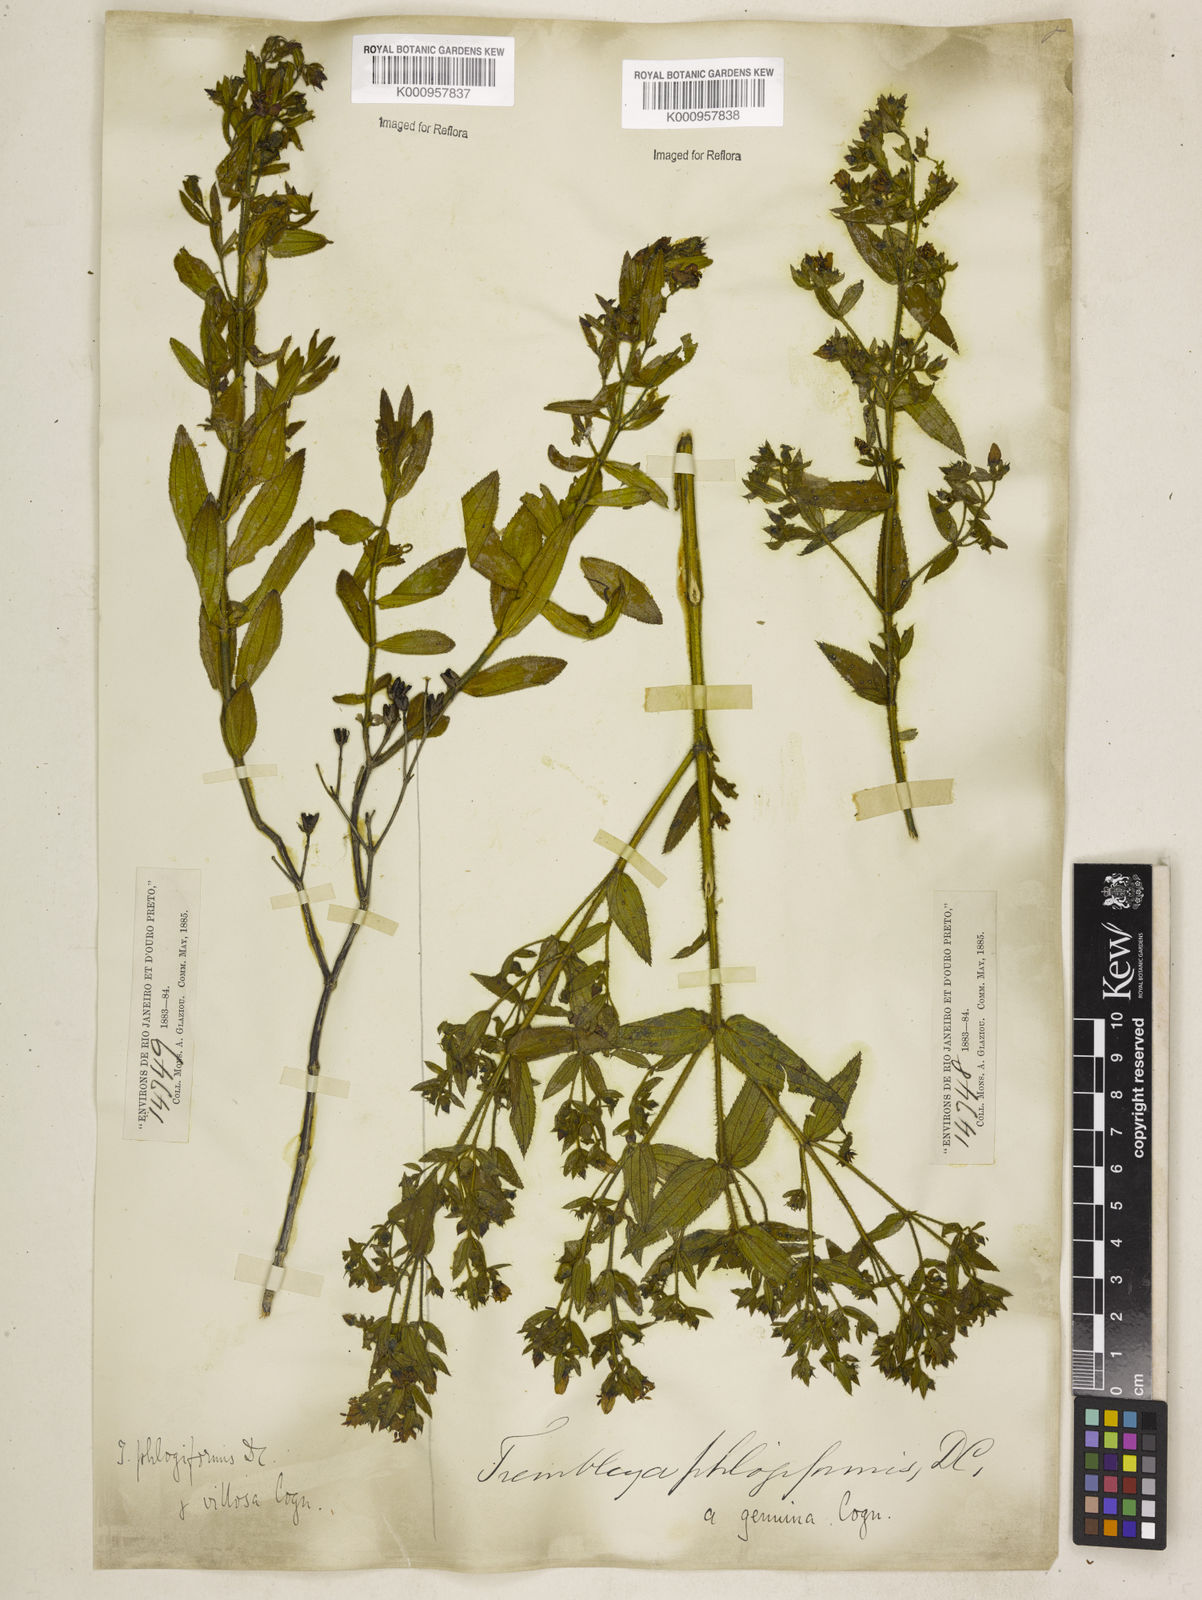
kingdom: Plantae
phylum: Tracheophyta
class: Magnoliopsida
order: Myrtales
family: Melastomataceae
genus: Microlicia
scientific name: Microlicia phlogiformis
